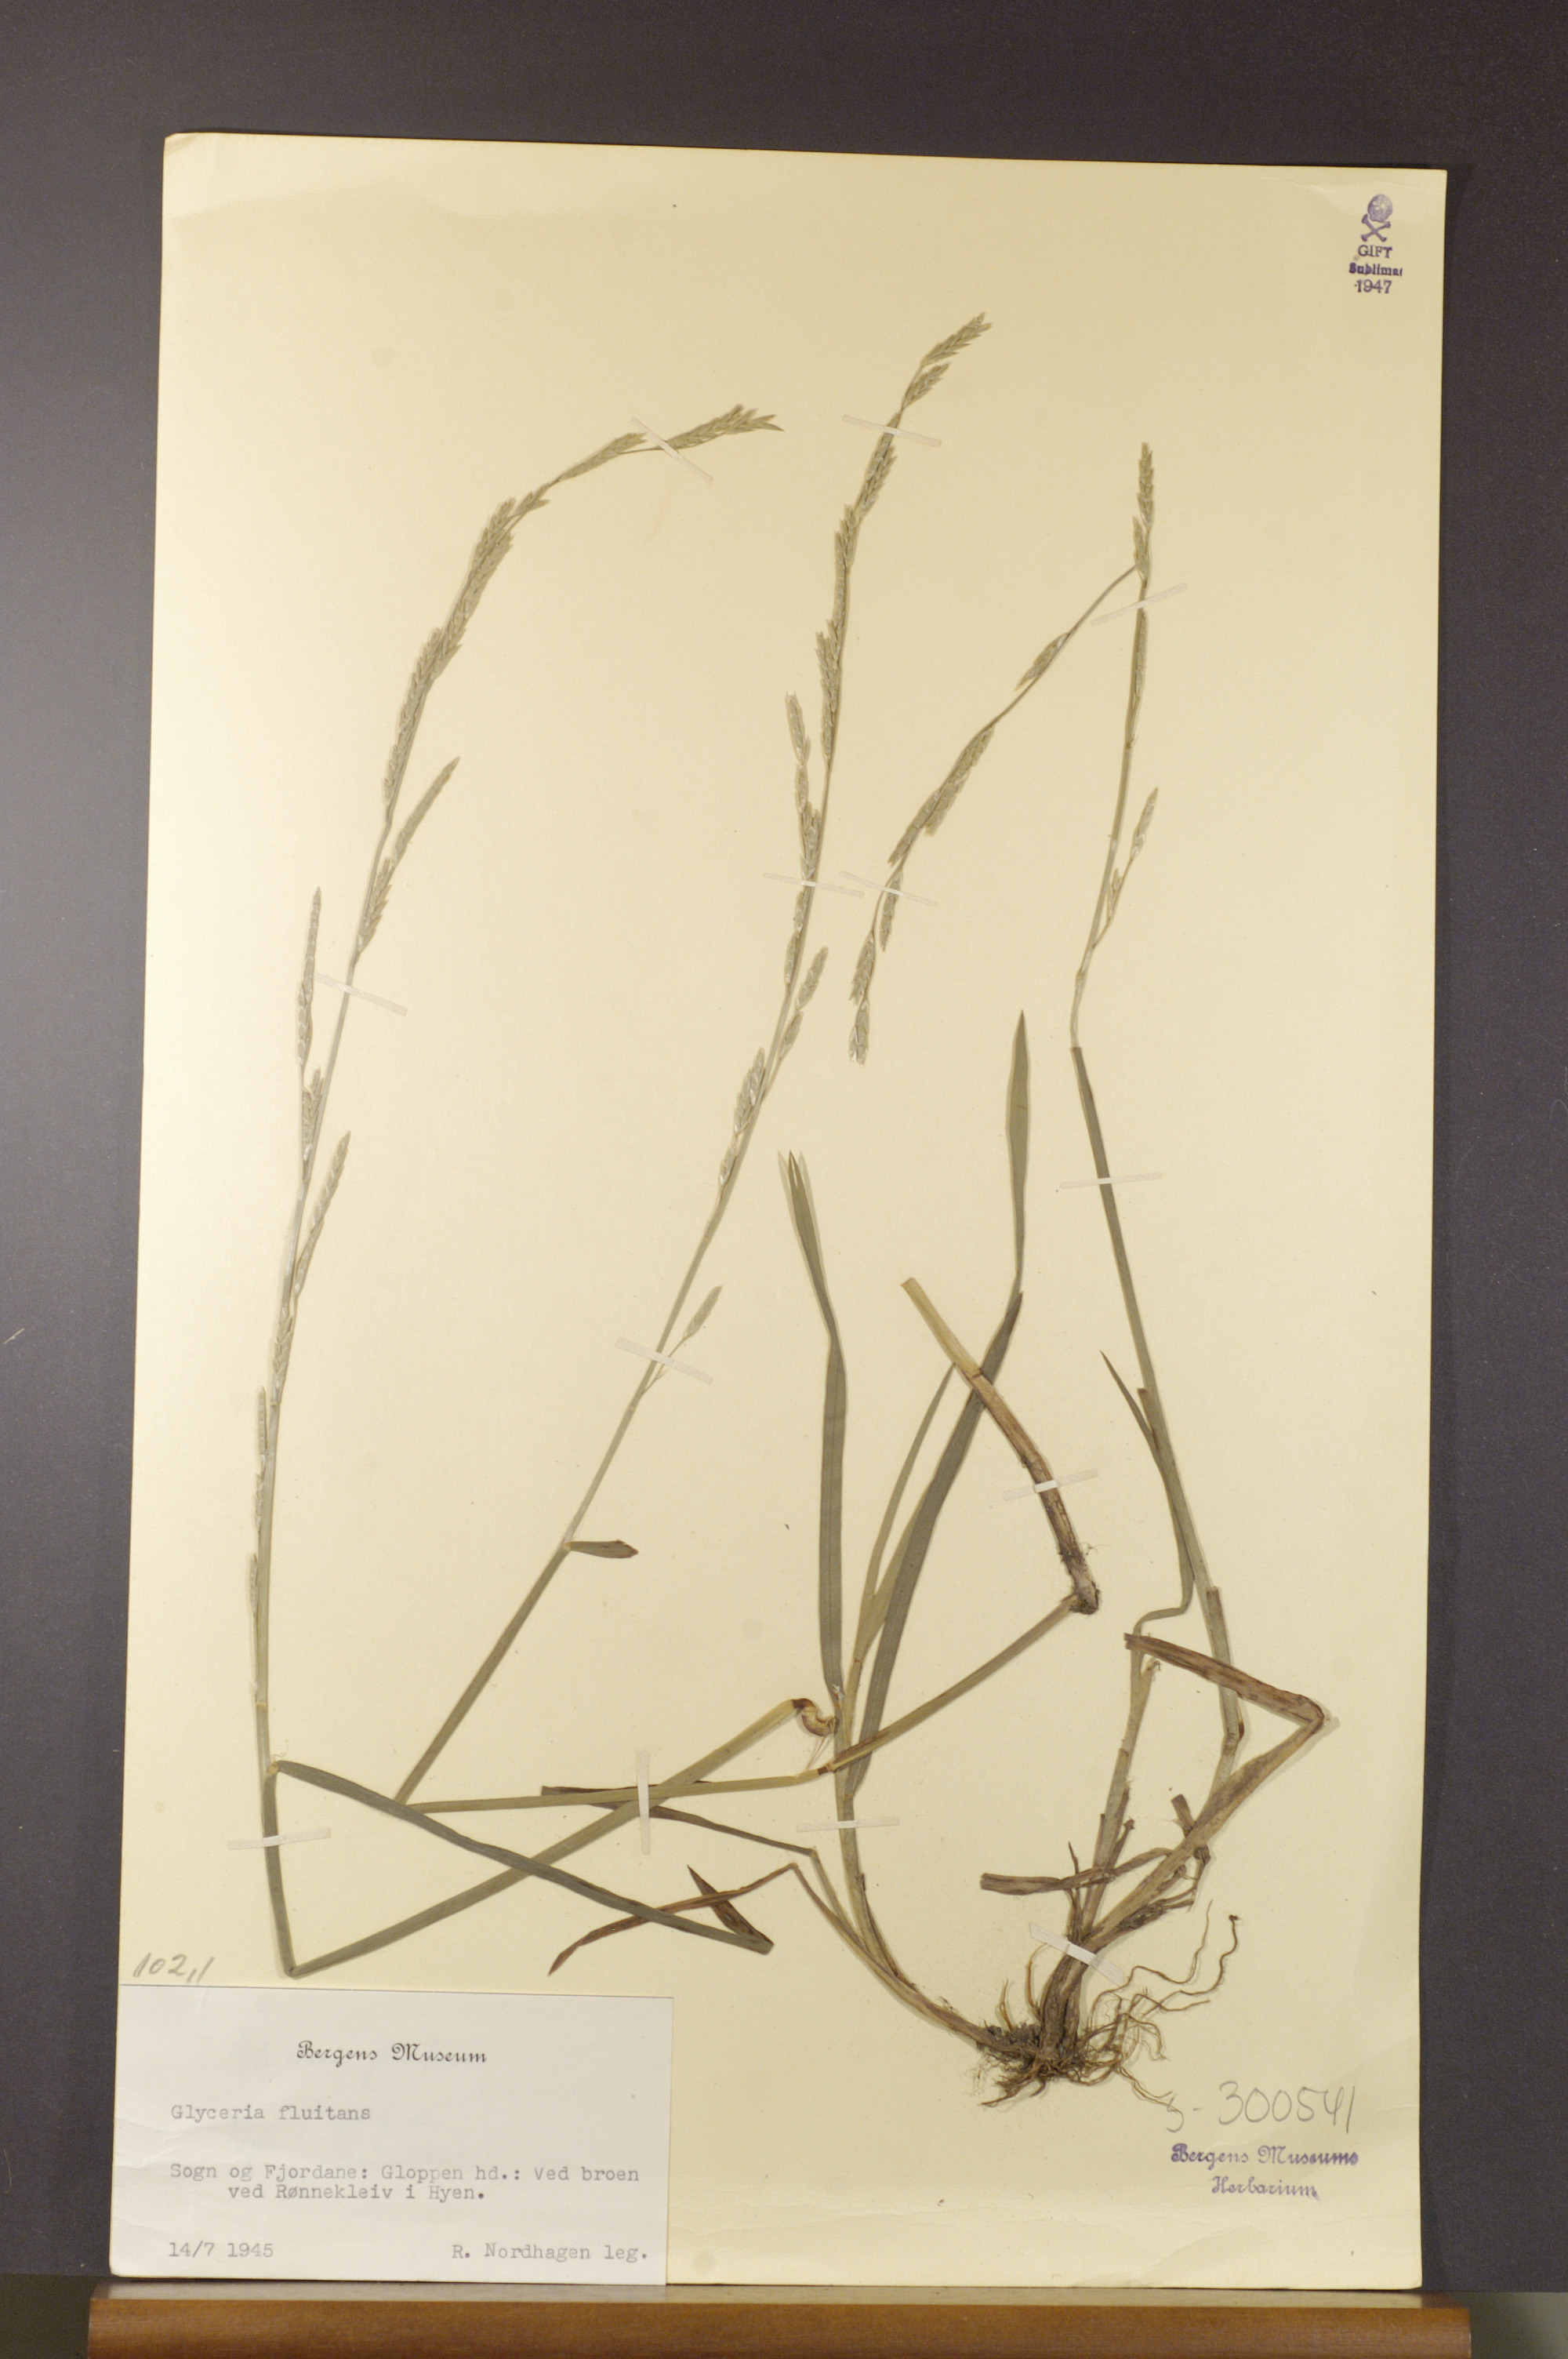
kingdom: Plantae
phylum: Tracheophyta
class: Liliopsida
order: Poales
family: Poaceae
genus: Glyceria
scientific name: Glyceria fluitans
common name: Floating sweet-grass
